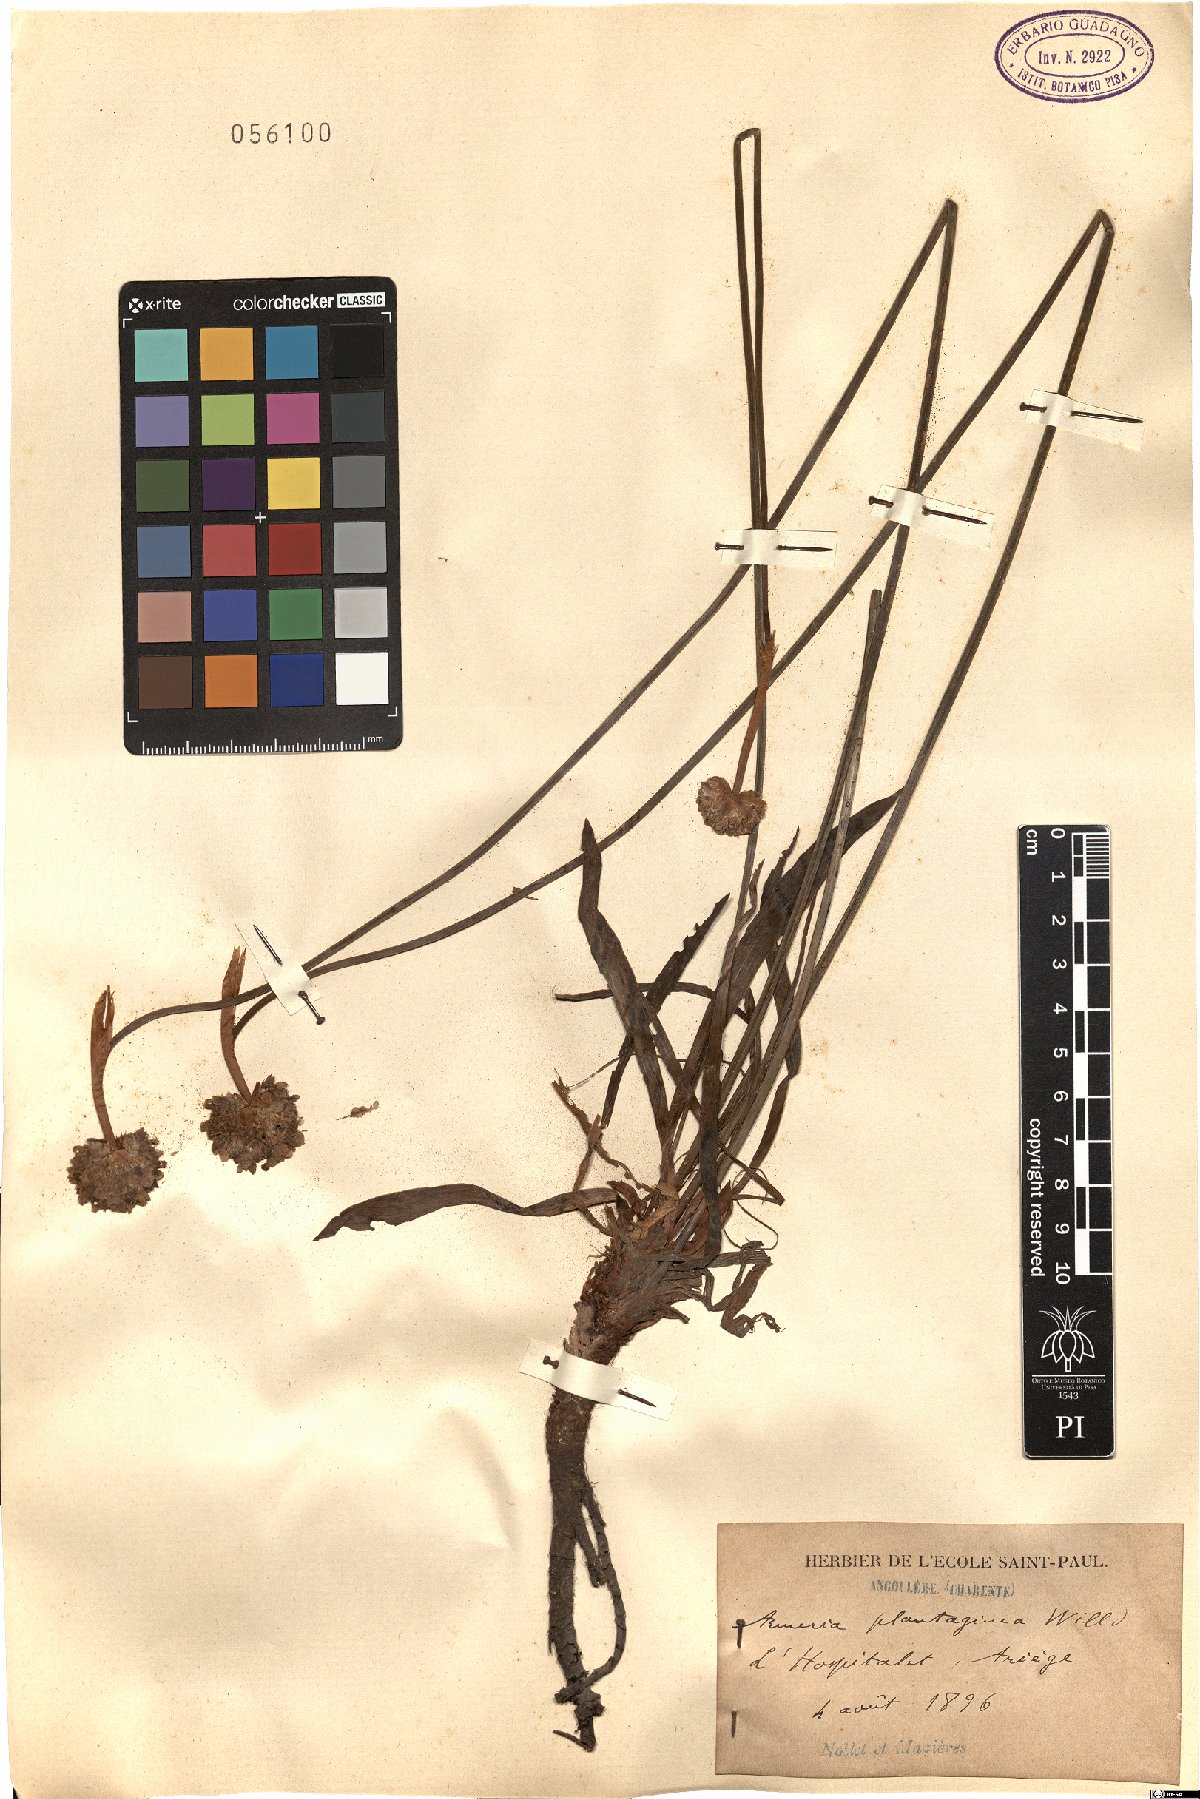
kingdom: Plantae
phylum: Tracheophyta
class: Magnoliopsida
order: Caryophyllales
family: Plumbaginaceae
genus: Armeria
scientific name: Armeria arenaria
